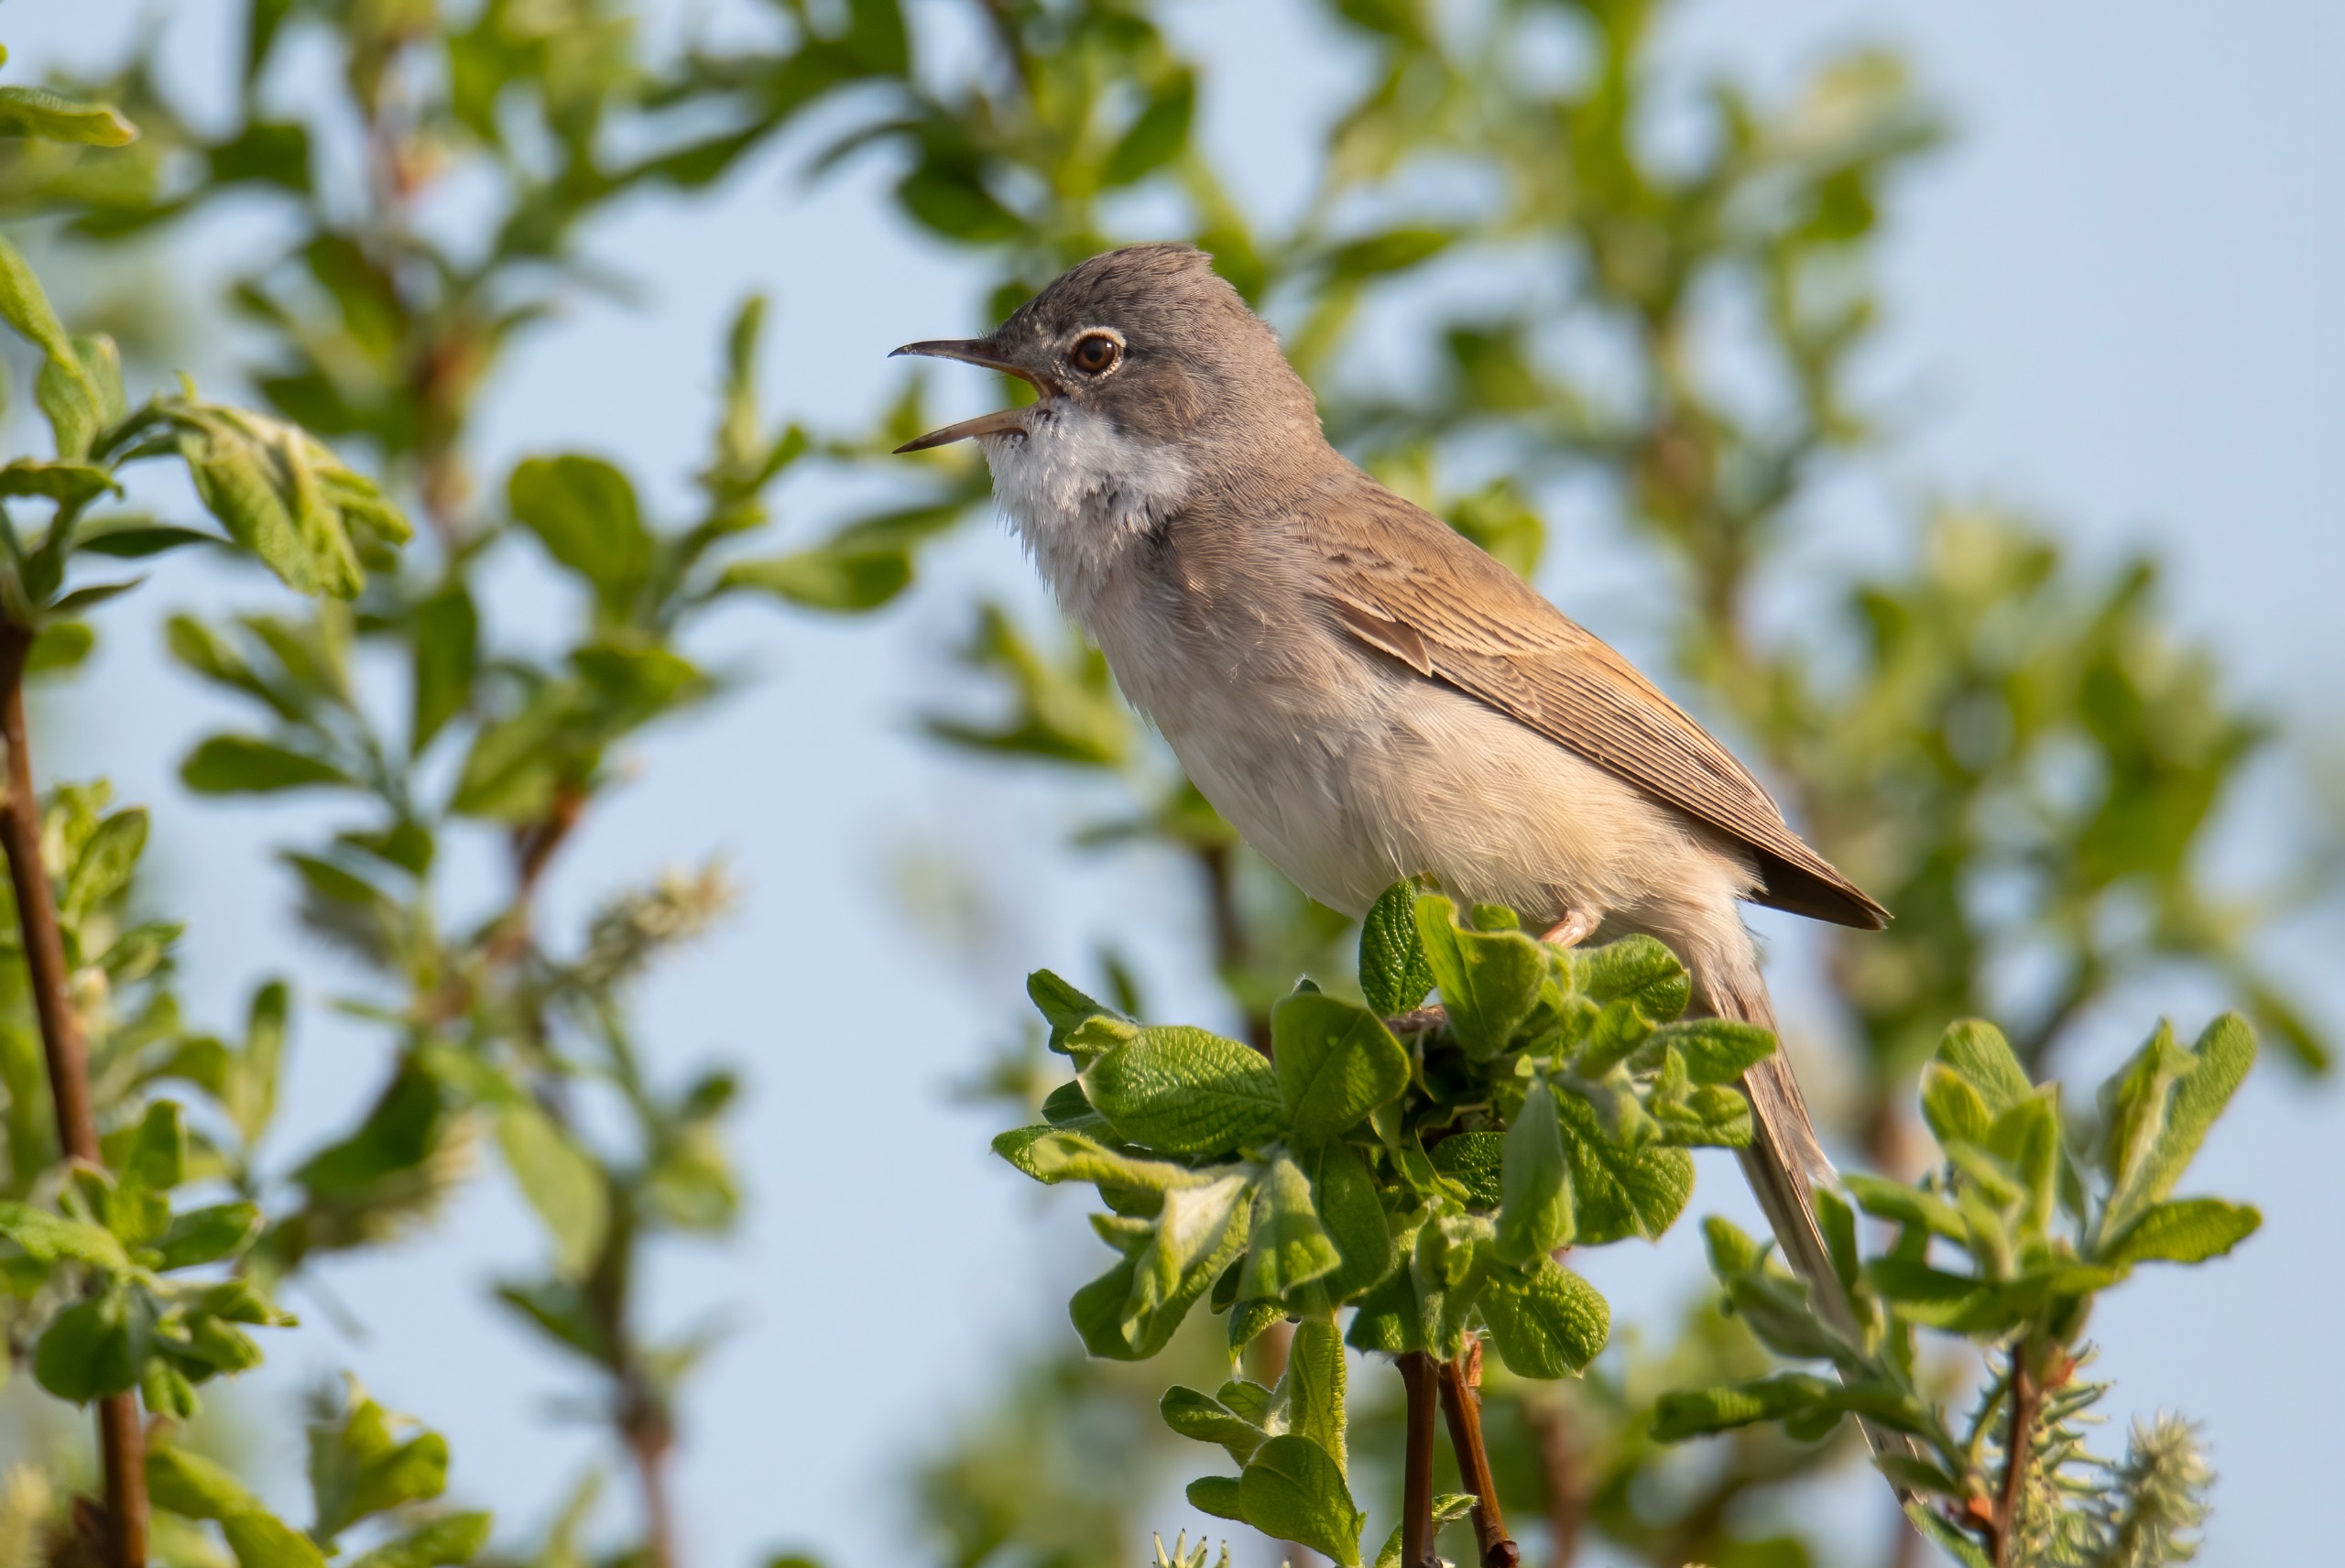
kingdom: Animalia
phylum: Chordata
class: Aves
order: Passeriformes
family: Sylviidae
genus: Sylvia
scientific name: Sylvia communis
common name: Tornsanger
